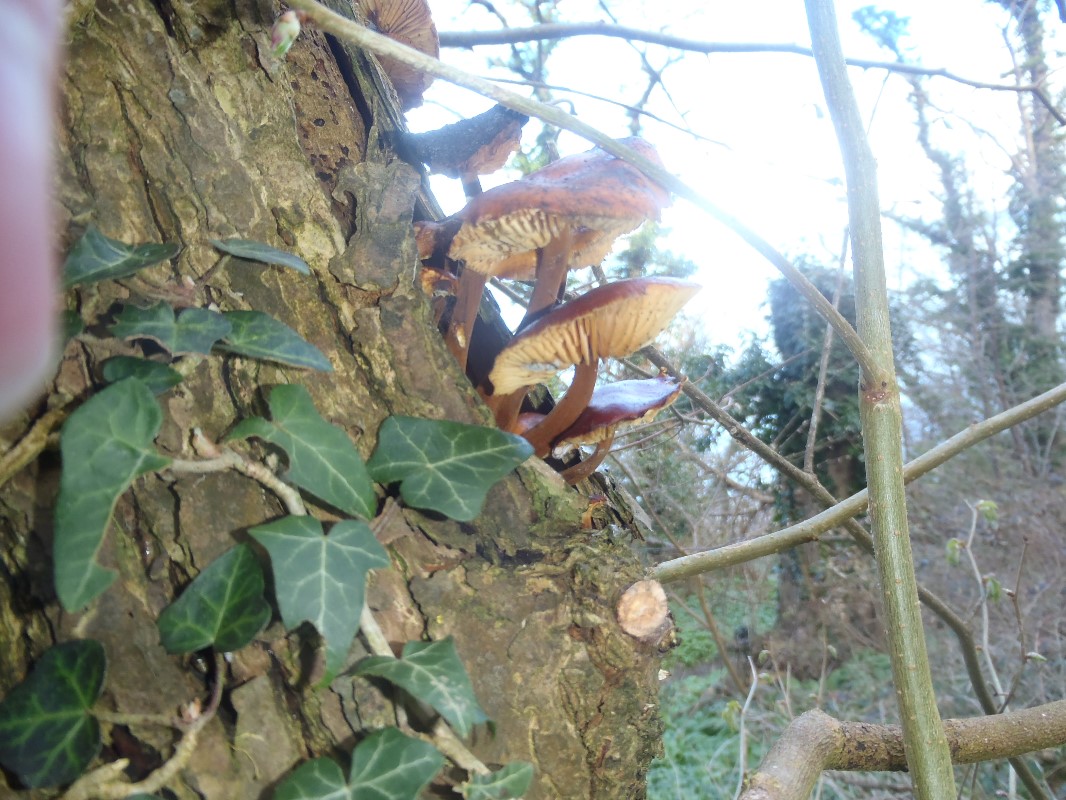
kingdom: Fungi
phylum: Basidiomycota
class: Agaricomycetes
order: Agaricales
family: Physalacriaceae
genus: Flammulina
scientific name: Flammulina velutipes
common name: gul fløjlsfod
